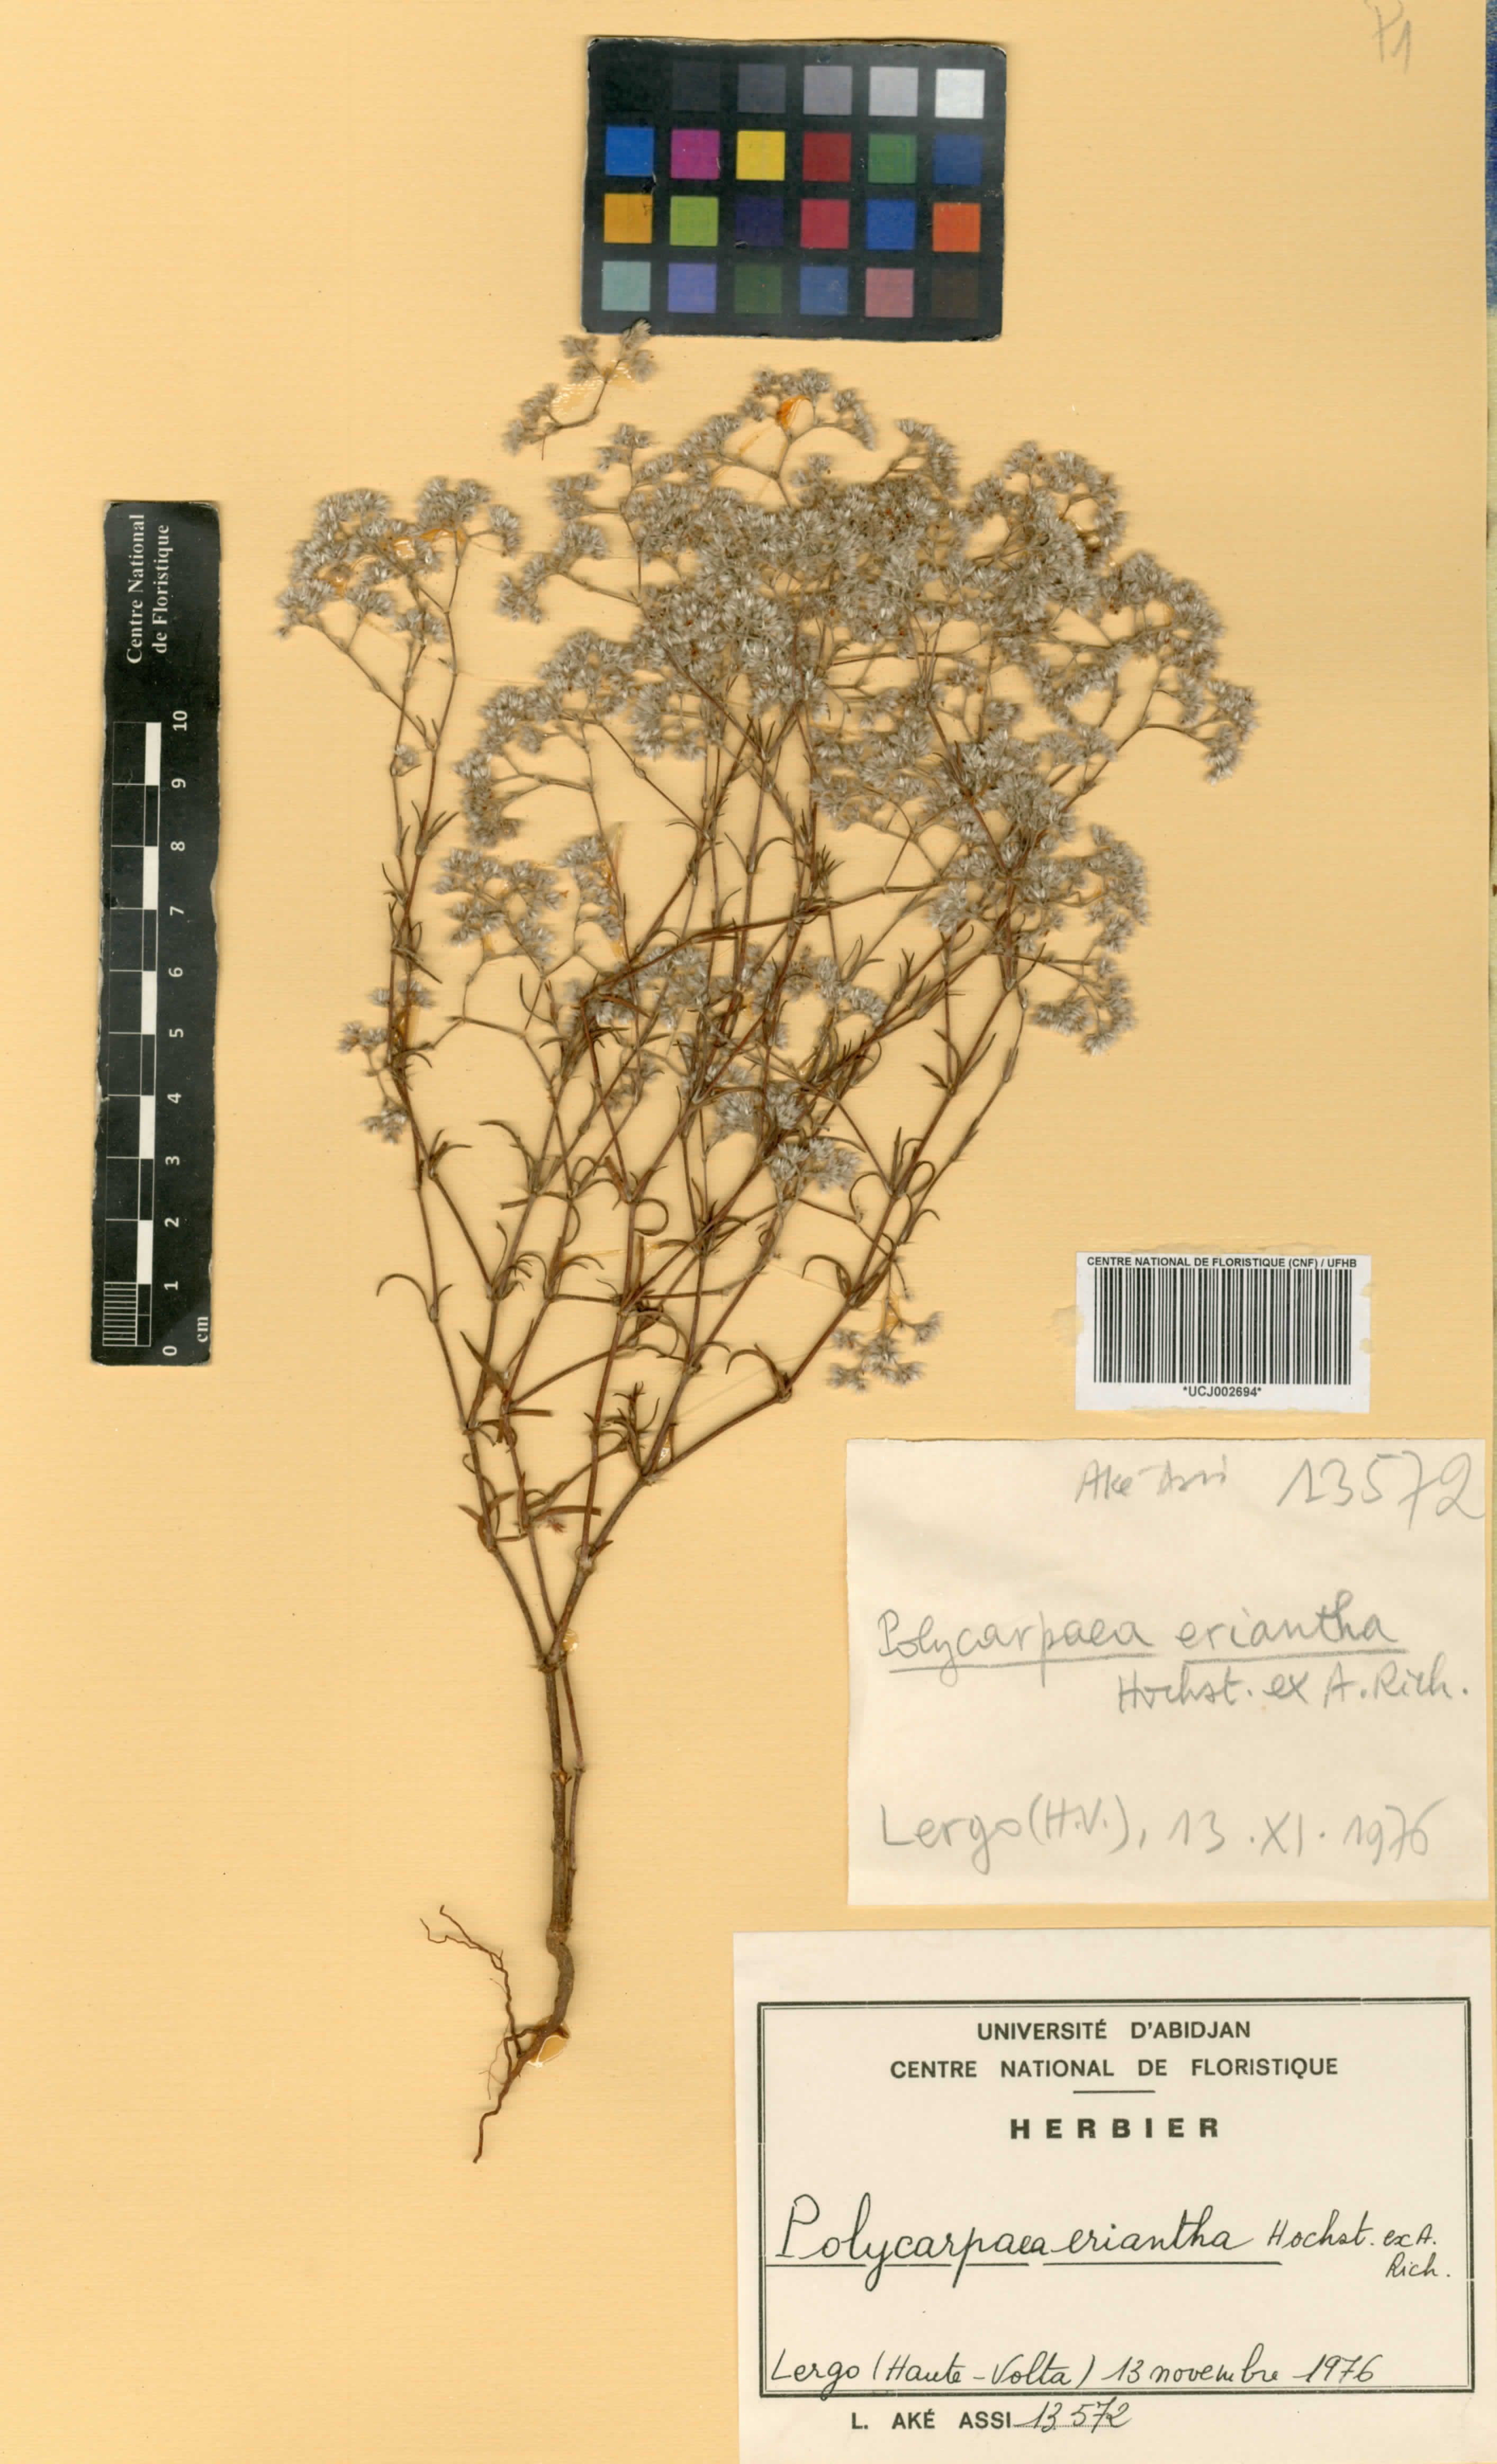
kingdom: Plantae
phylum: Tracheophyta
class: Magnoliopsida
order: Caryophyllales
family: Caryophyllaceae
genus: Polycarpaea
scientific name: Polycarpaea eriantha
